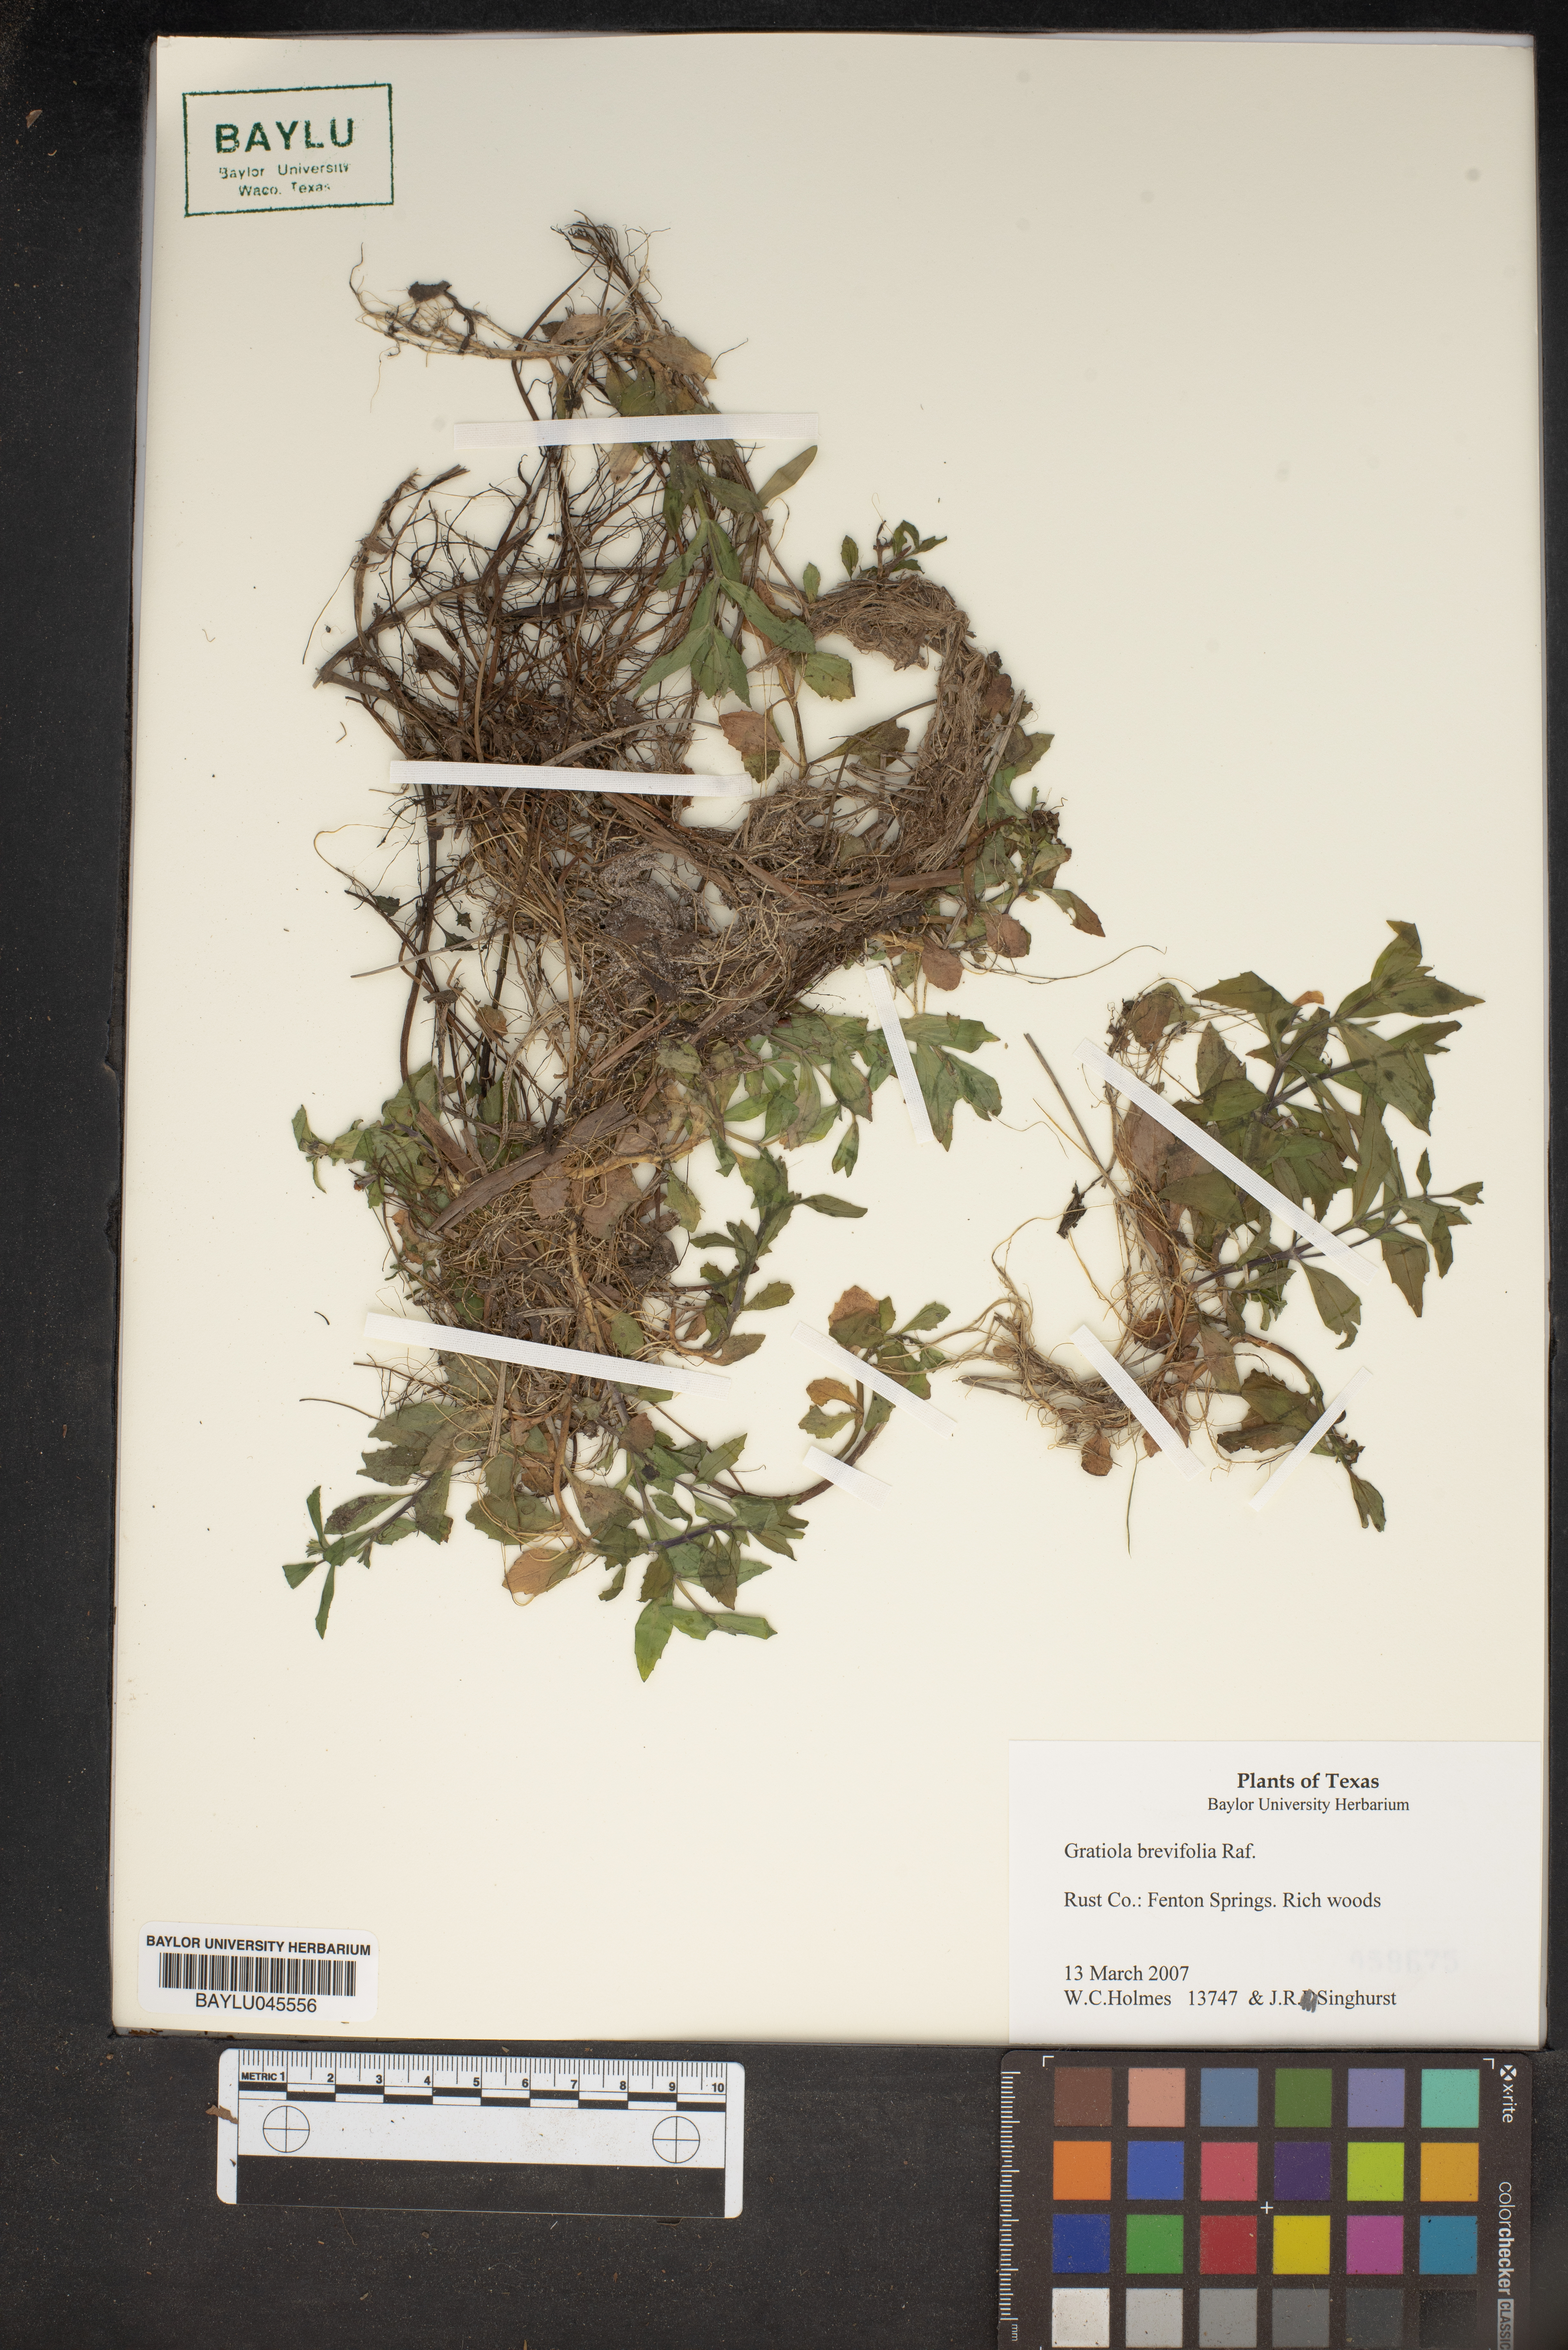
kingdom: Plantae
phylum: Tracheophyta
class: Magnoliopsida
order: Lamiales
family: Plantaginaceae
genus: Gratiola
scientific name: Gratiola brevifolia
